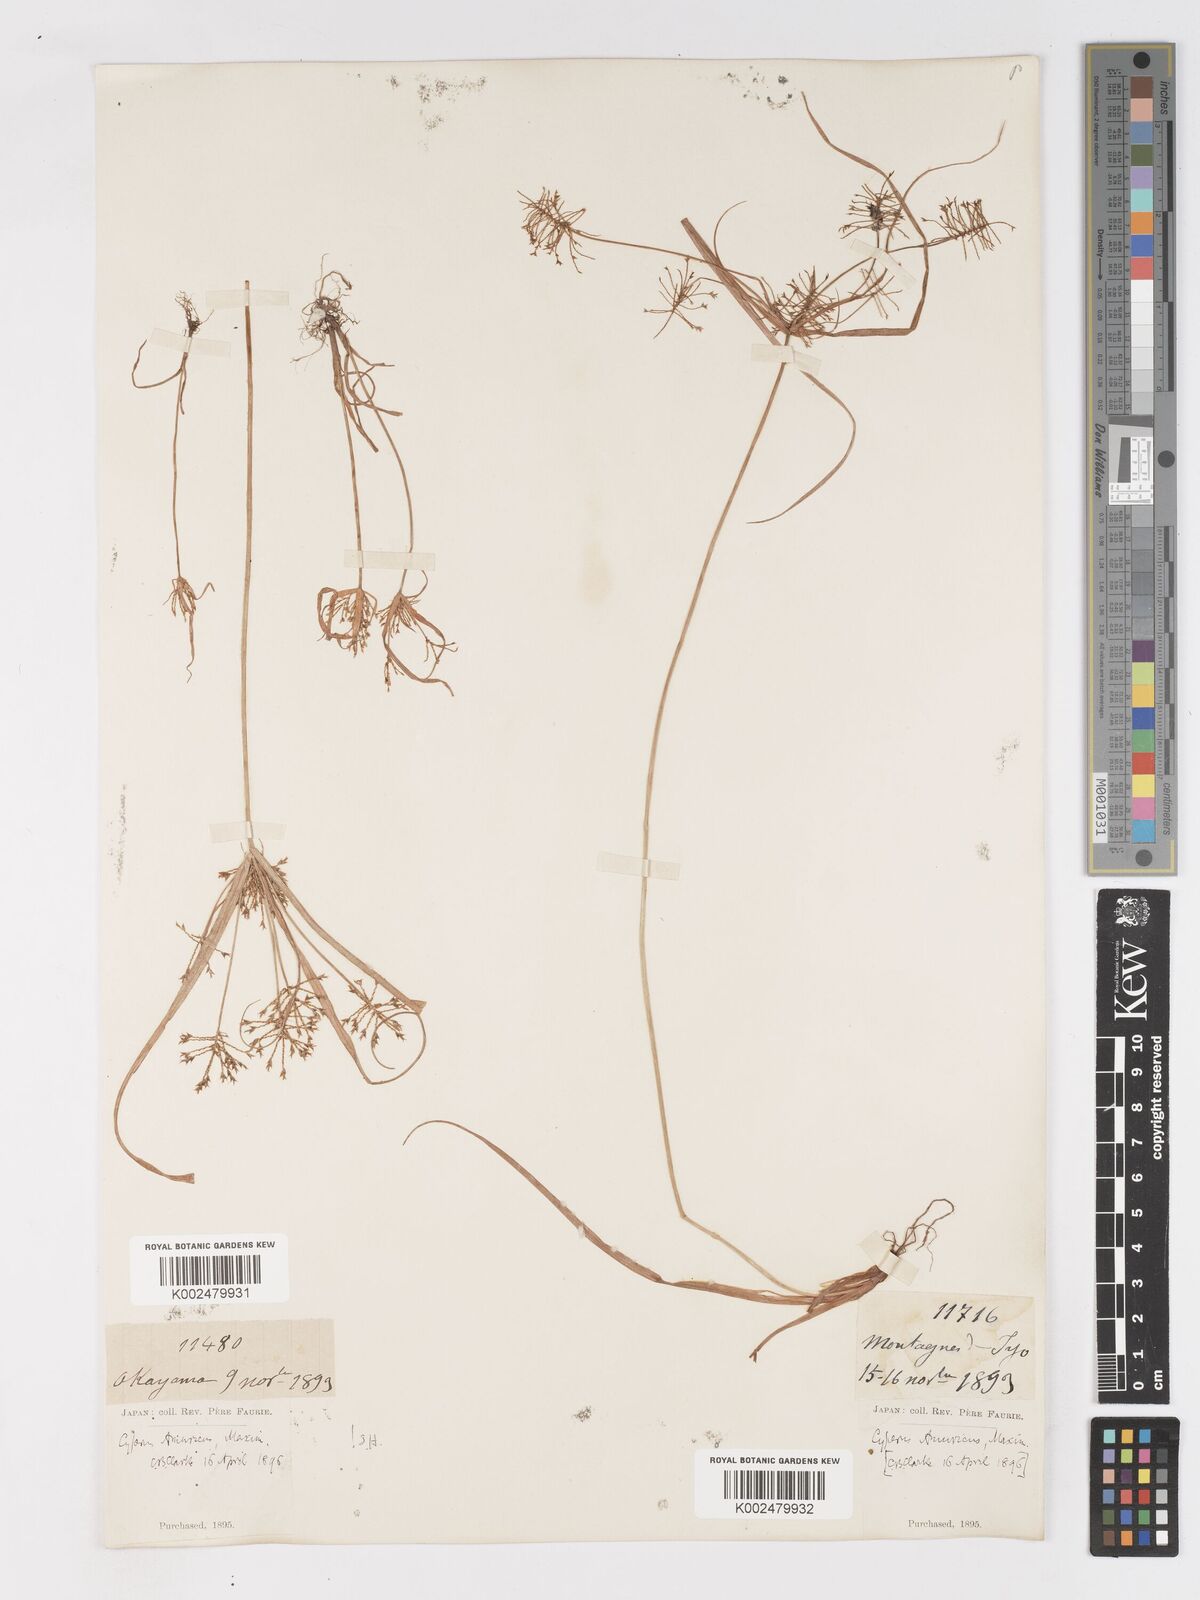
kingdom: Plantae
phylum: Tracheophyta
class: Liliopsida
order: Poales
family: Cyperaceae
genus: Cyperus
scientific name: Cyperus amuricus
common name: Asian flatsedge
